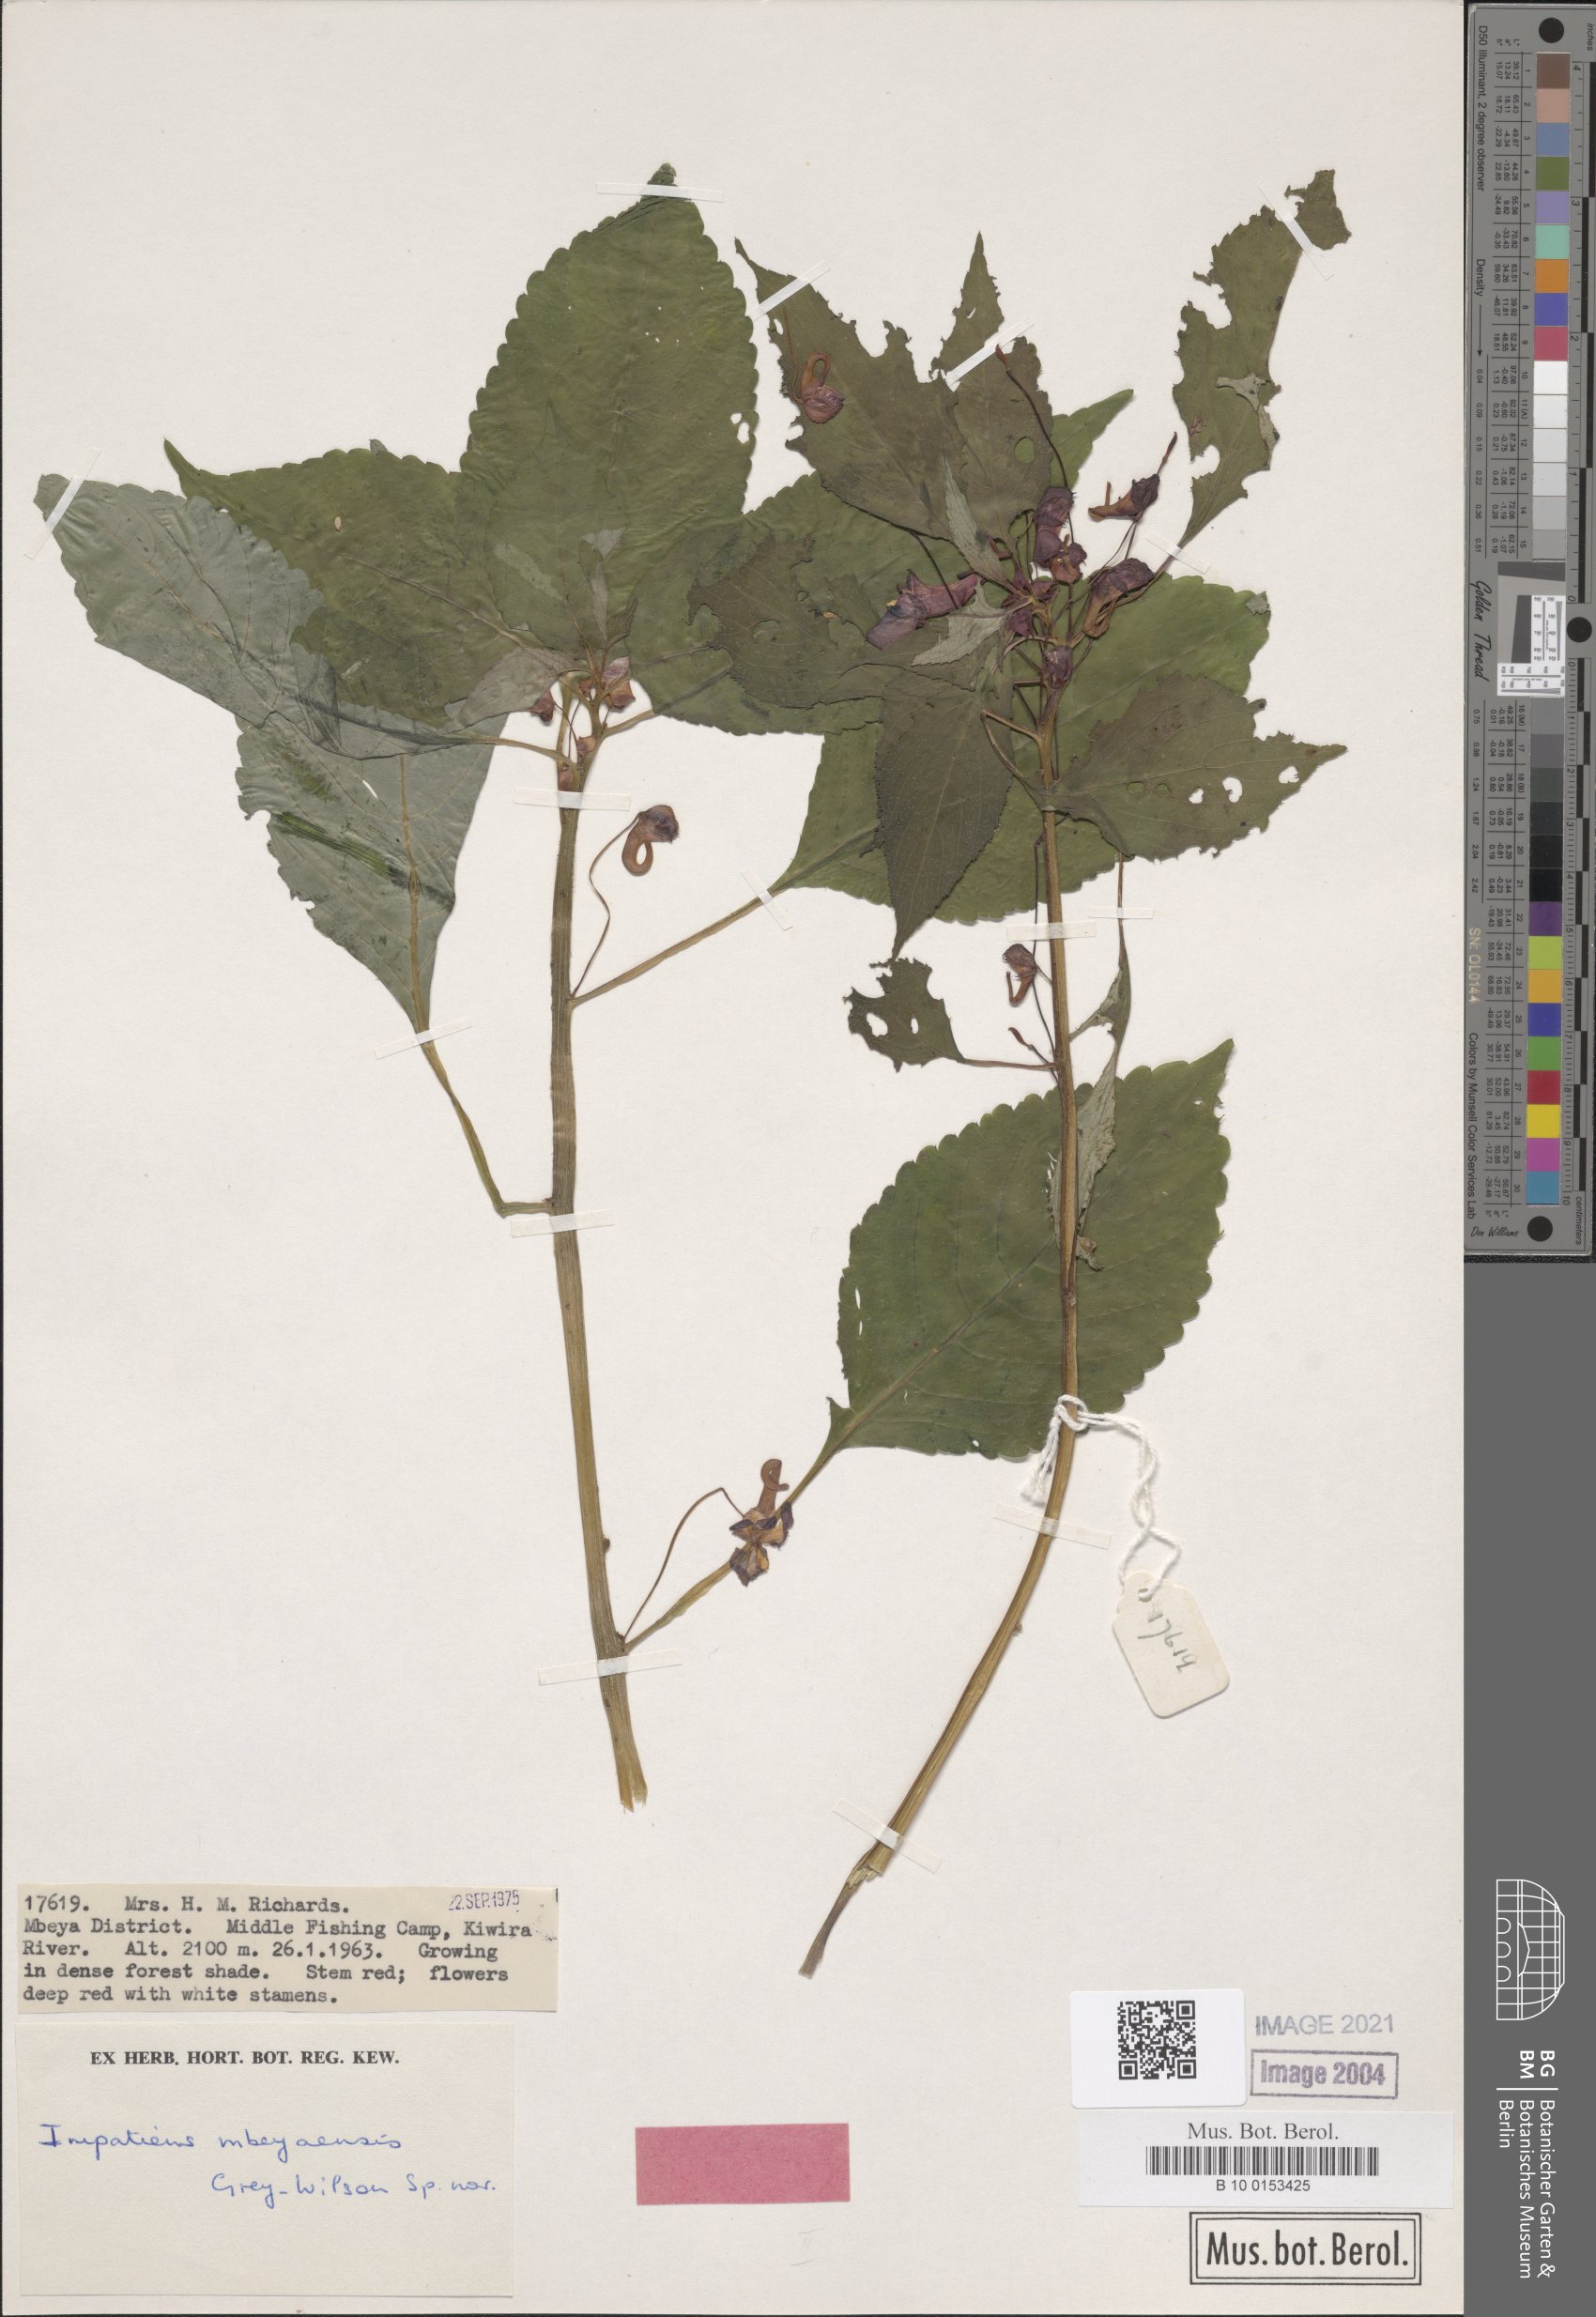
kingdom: Plantae
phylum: Tracheophyta
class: Magnoliopsida
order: Ericales
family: Balsaminaceae
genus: Impatiens
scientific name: Impatiens
